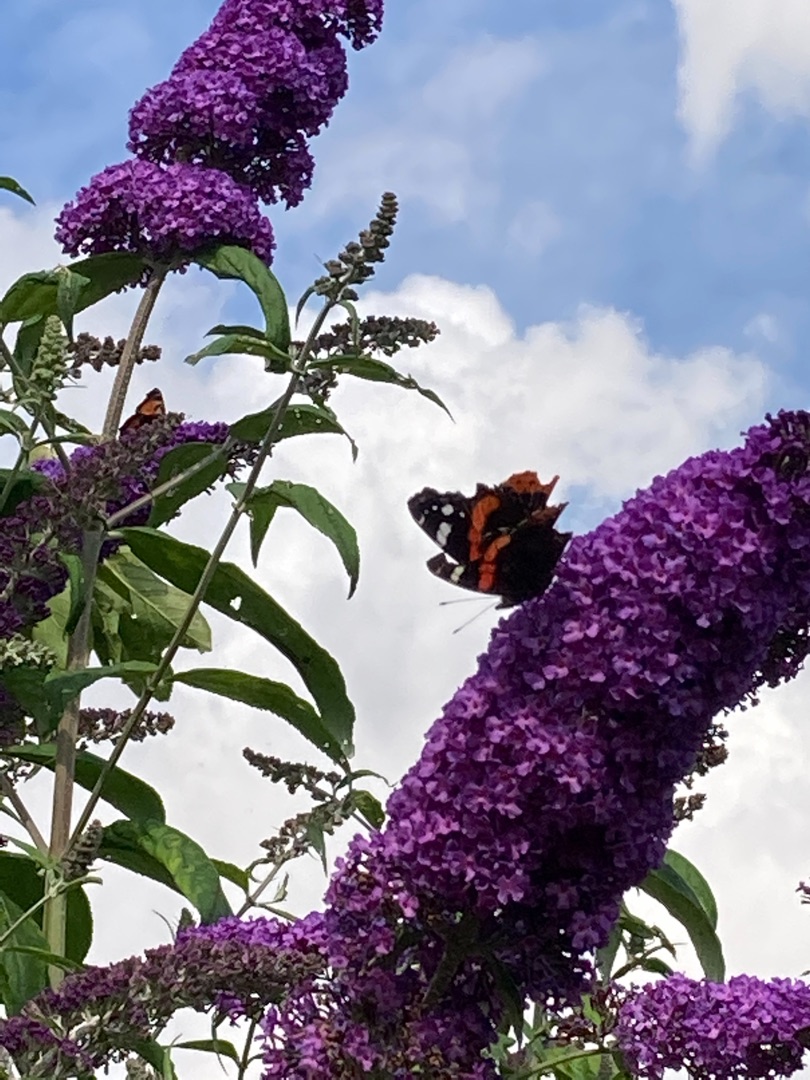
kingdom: Animalia
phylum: Arthropoda
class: Insecta
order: Lepidoptera
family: Nymphalidae
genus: Vanessa
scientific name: Vanessa atalanta
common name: Admiral
